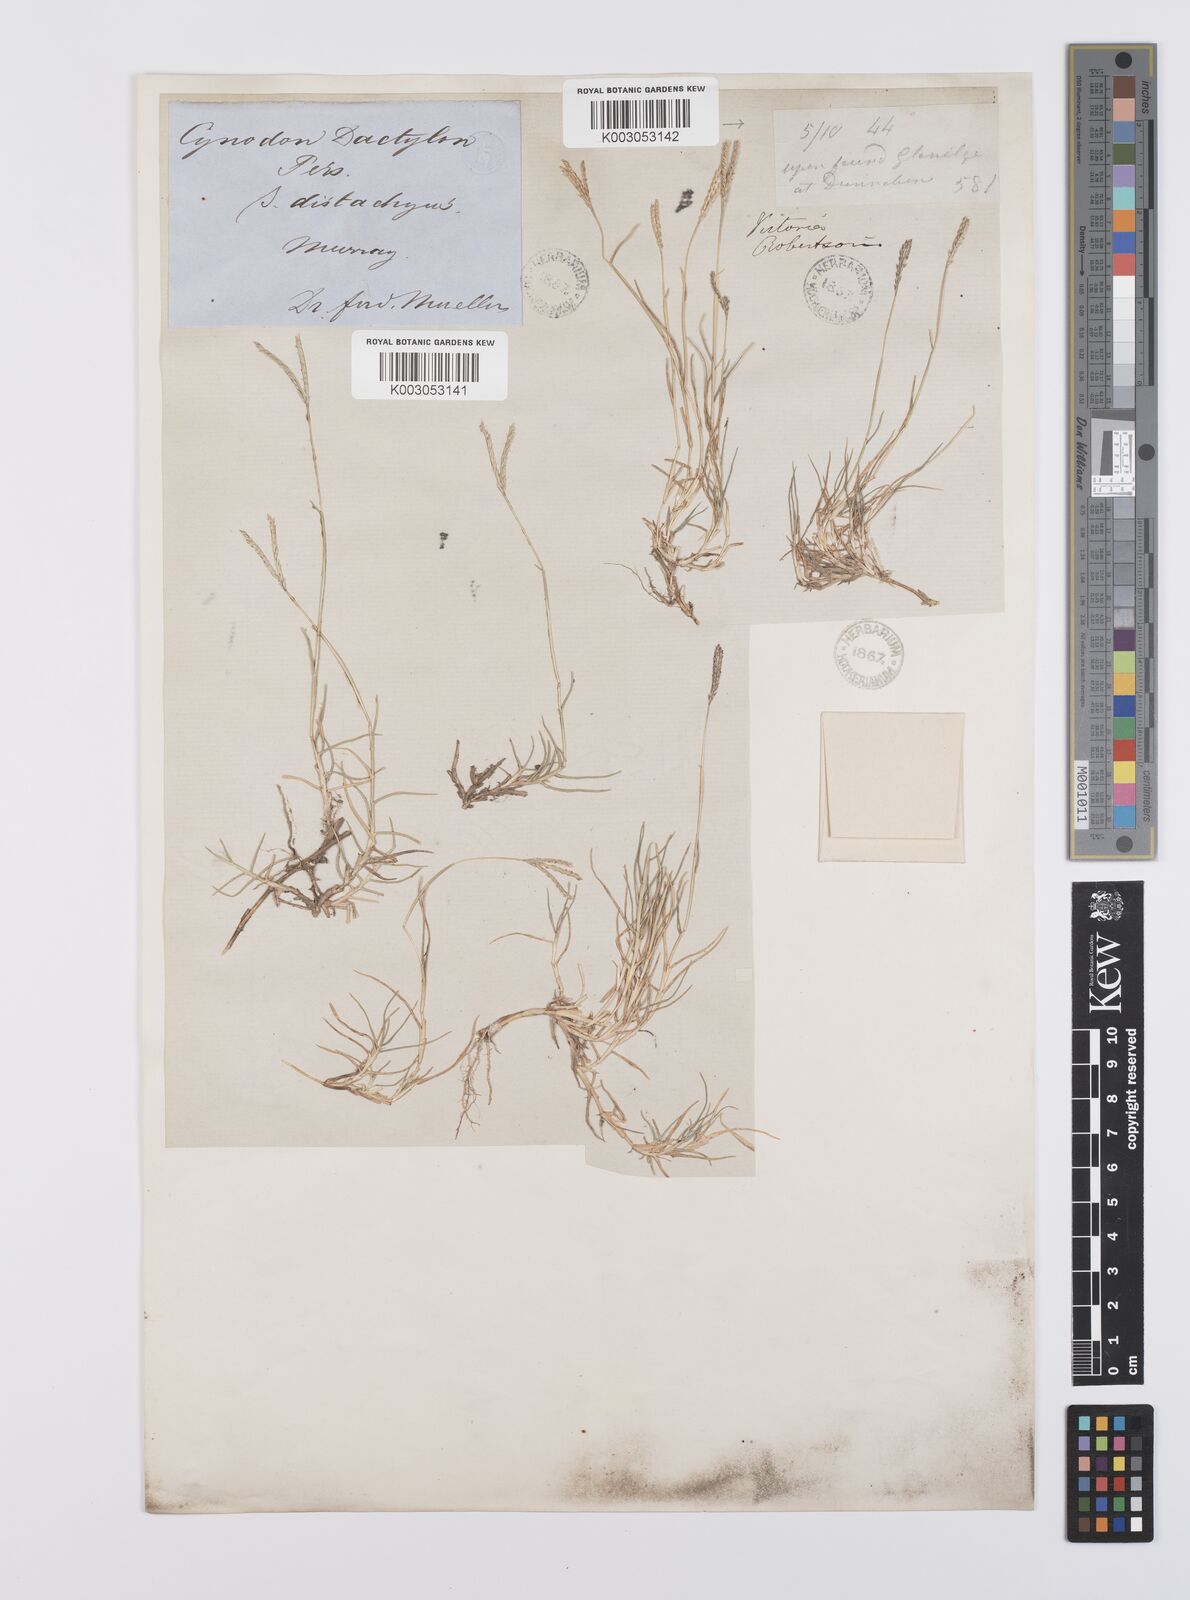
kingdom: Plantae
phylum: Tracheophyta
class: Liliopsida
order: Poales
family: Poaceae
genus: Cynodon
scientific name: Cynodon dactylon
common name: Bermuda grass
